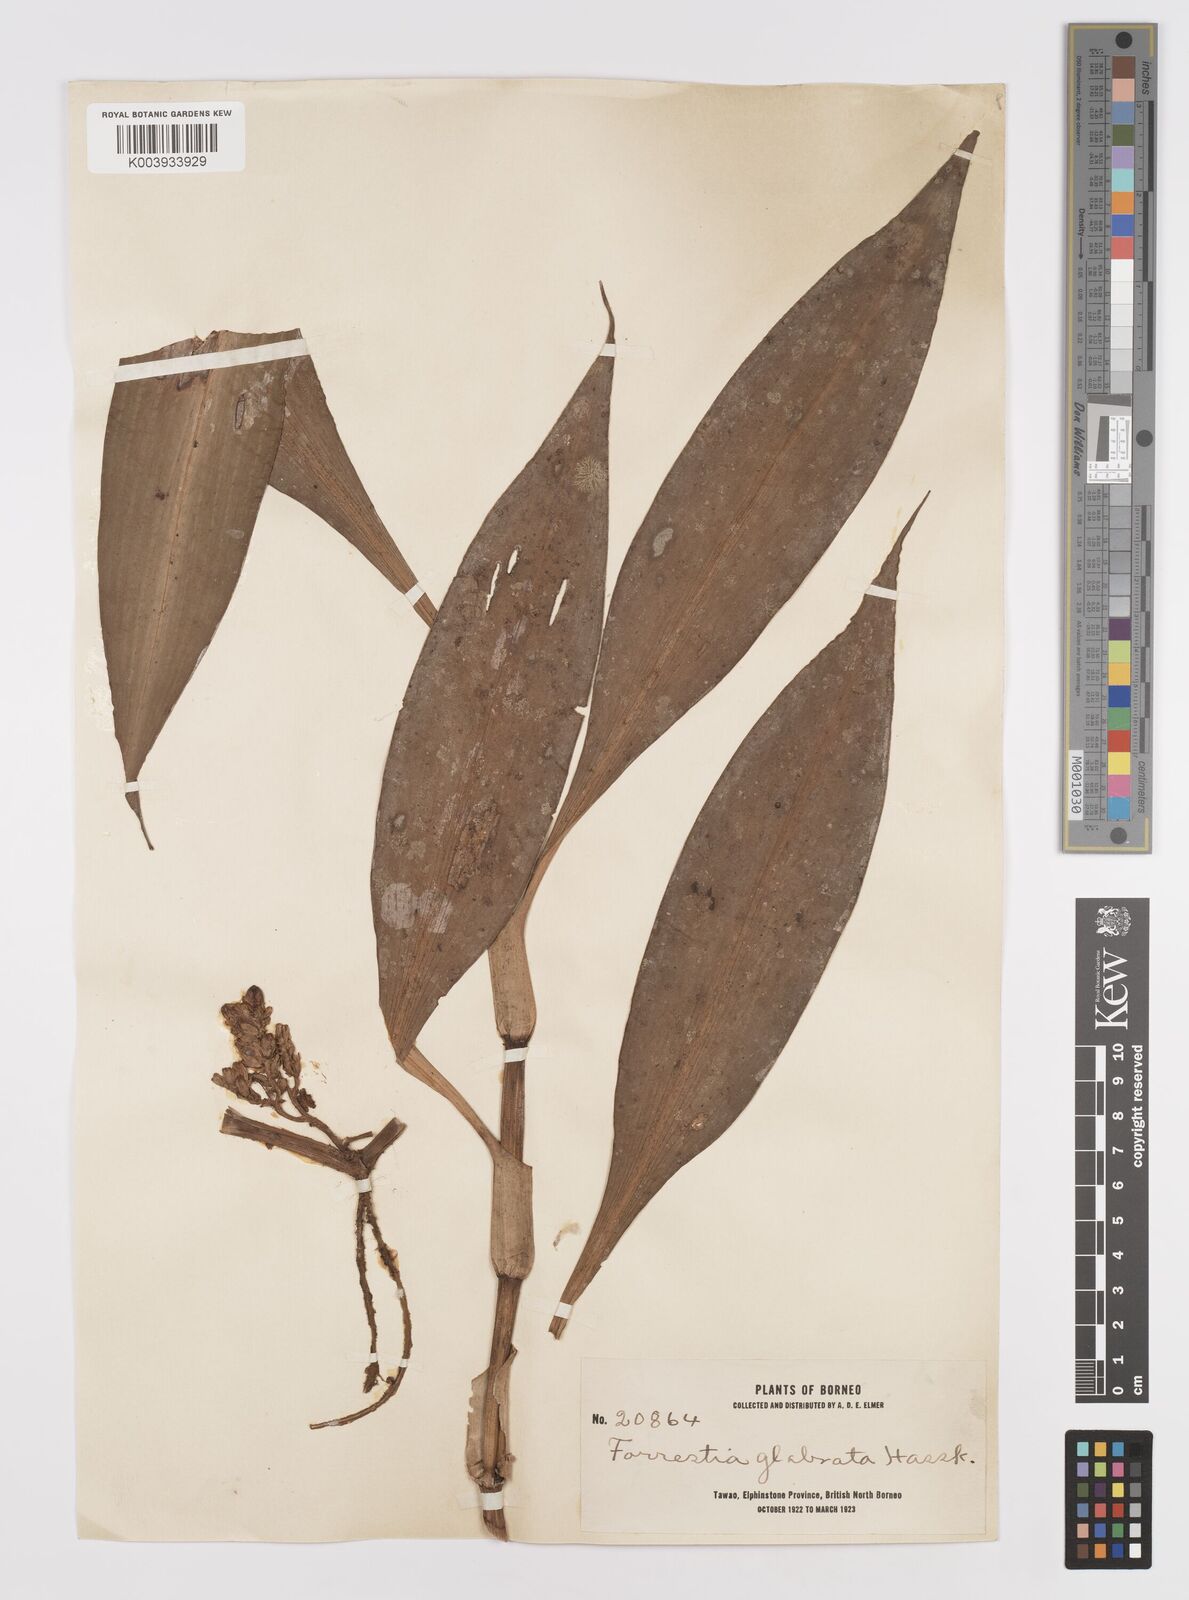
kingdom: Plantae
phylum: Tracheophyta
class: Liliopsida
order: Commelinales
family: Commelinaceae
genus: Amischotolype
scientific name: Amischotolype glabrata
